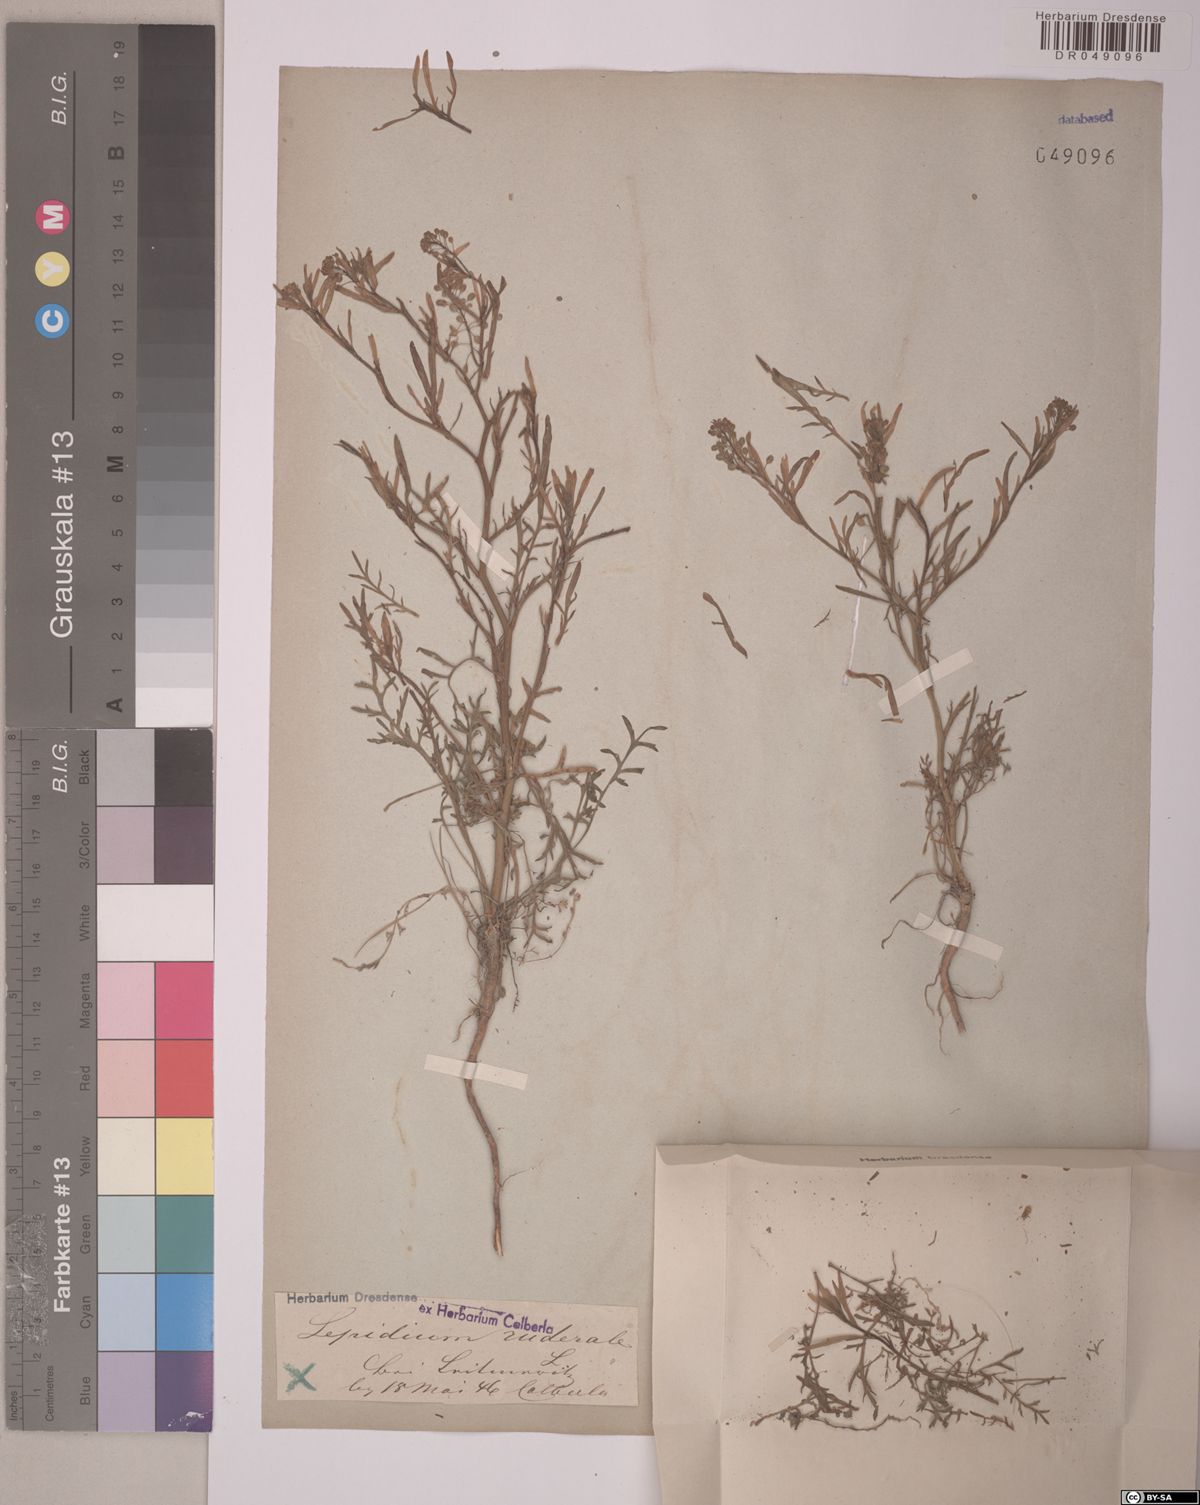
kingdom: Plantae
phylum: Tracheophyta
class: Magnoliopsida
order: Brassicales
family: Brassicaceae
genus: Lepidium
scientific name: Lepidium ruderale
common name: Narrow-leaved pepperwort
